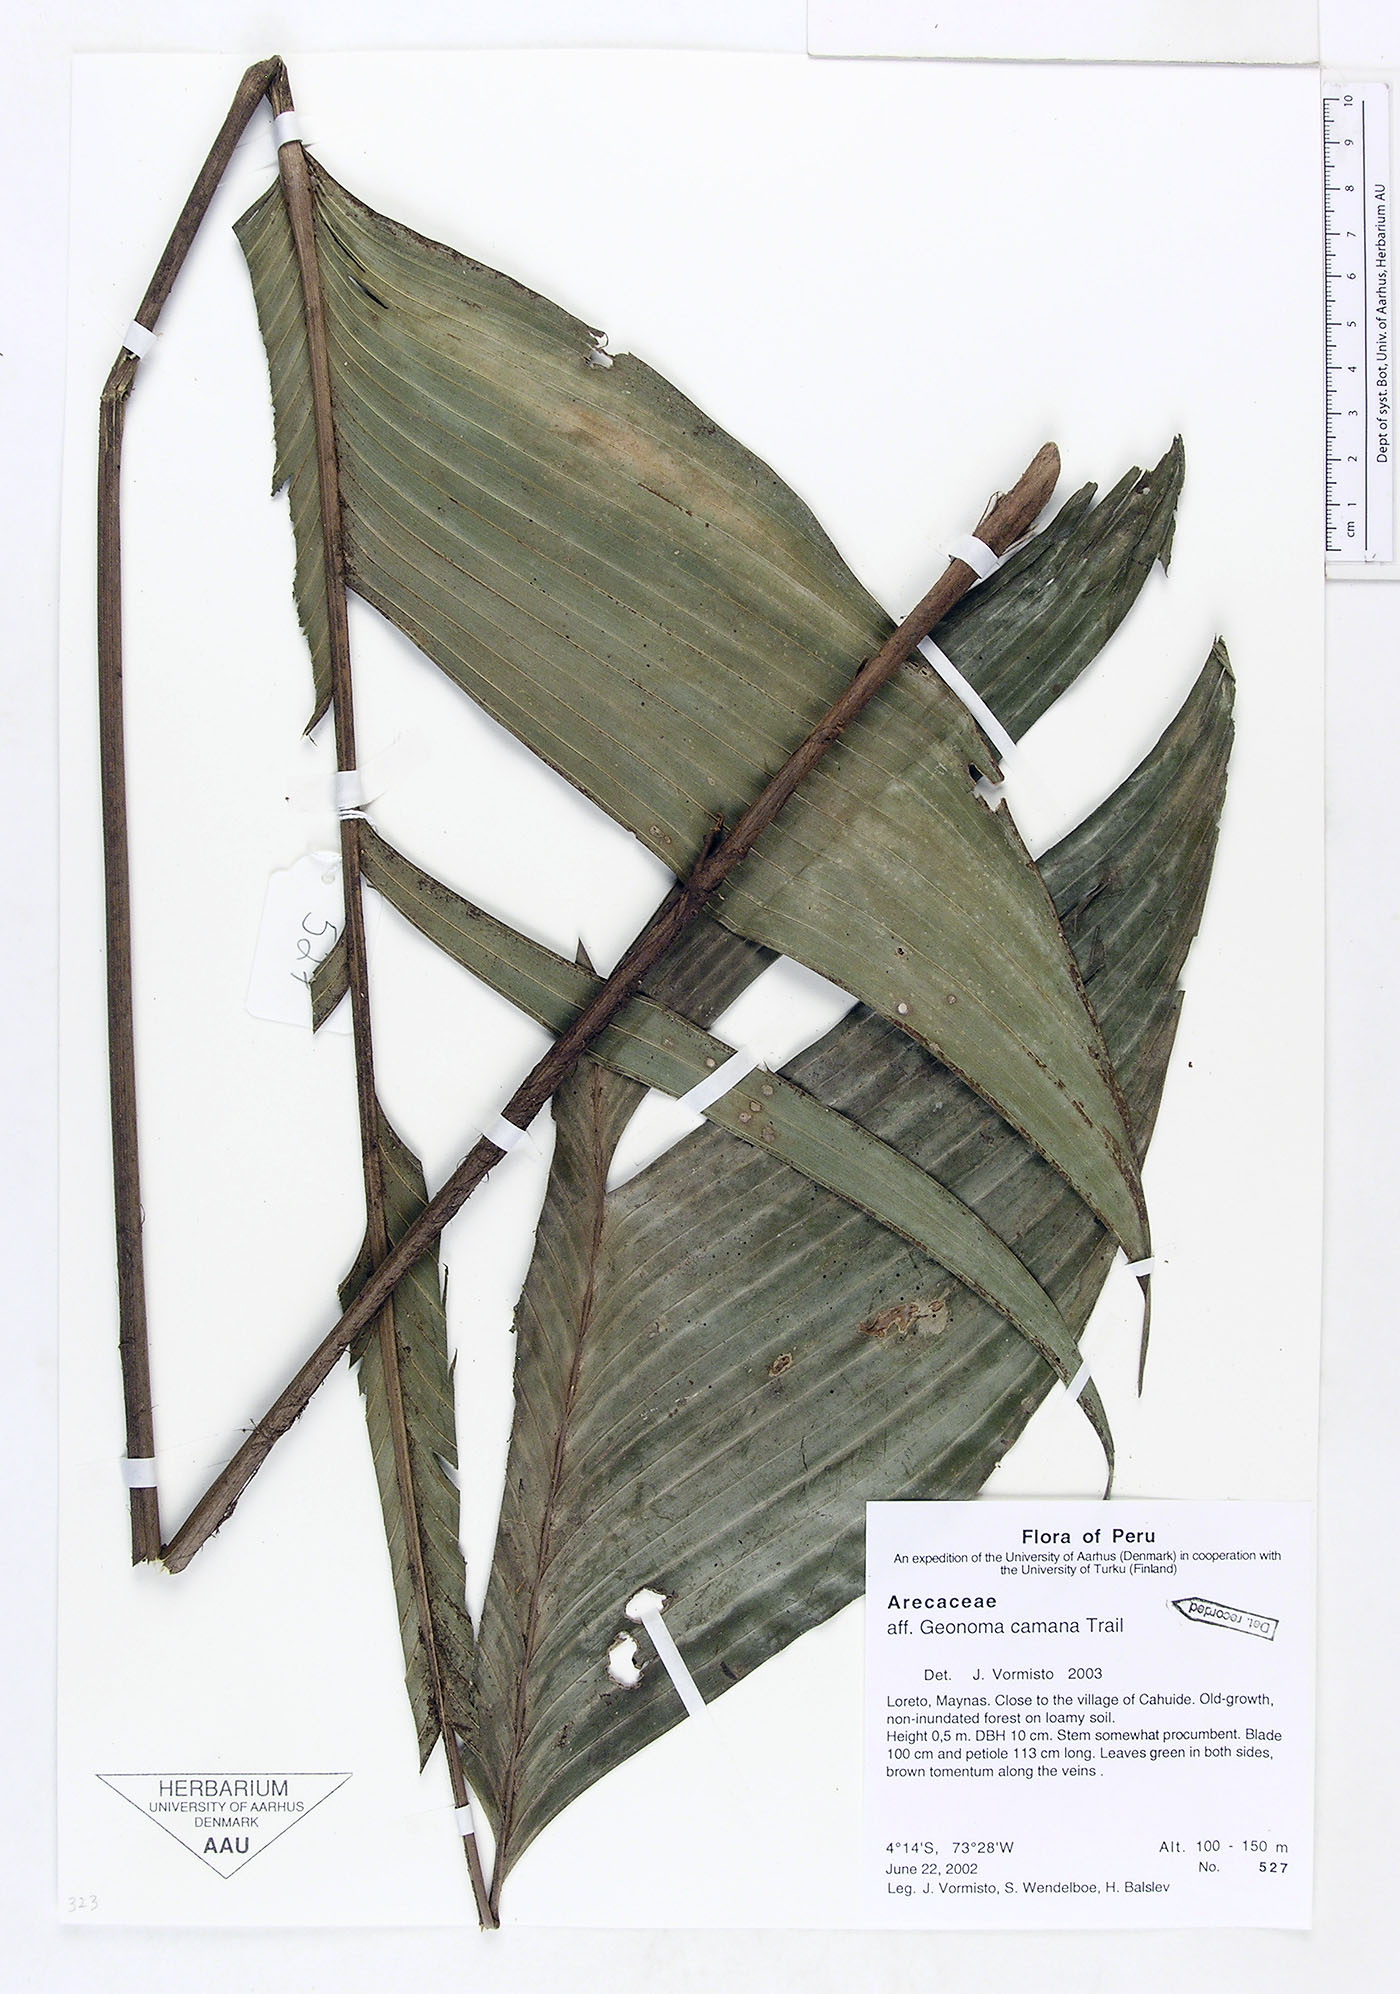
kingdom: Plantae
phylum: Tracheophyta
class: Liliopsida
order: Arecales
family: Arecaceae
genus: Geonoma
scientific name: Geonoma camana
